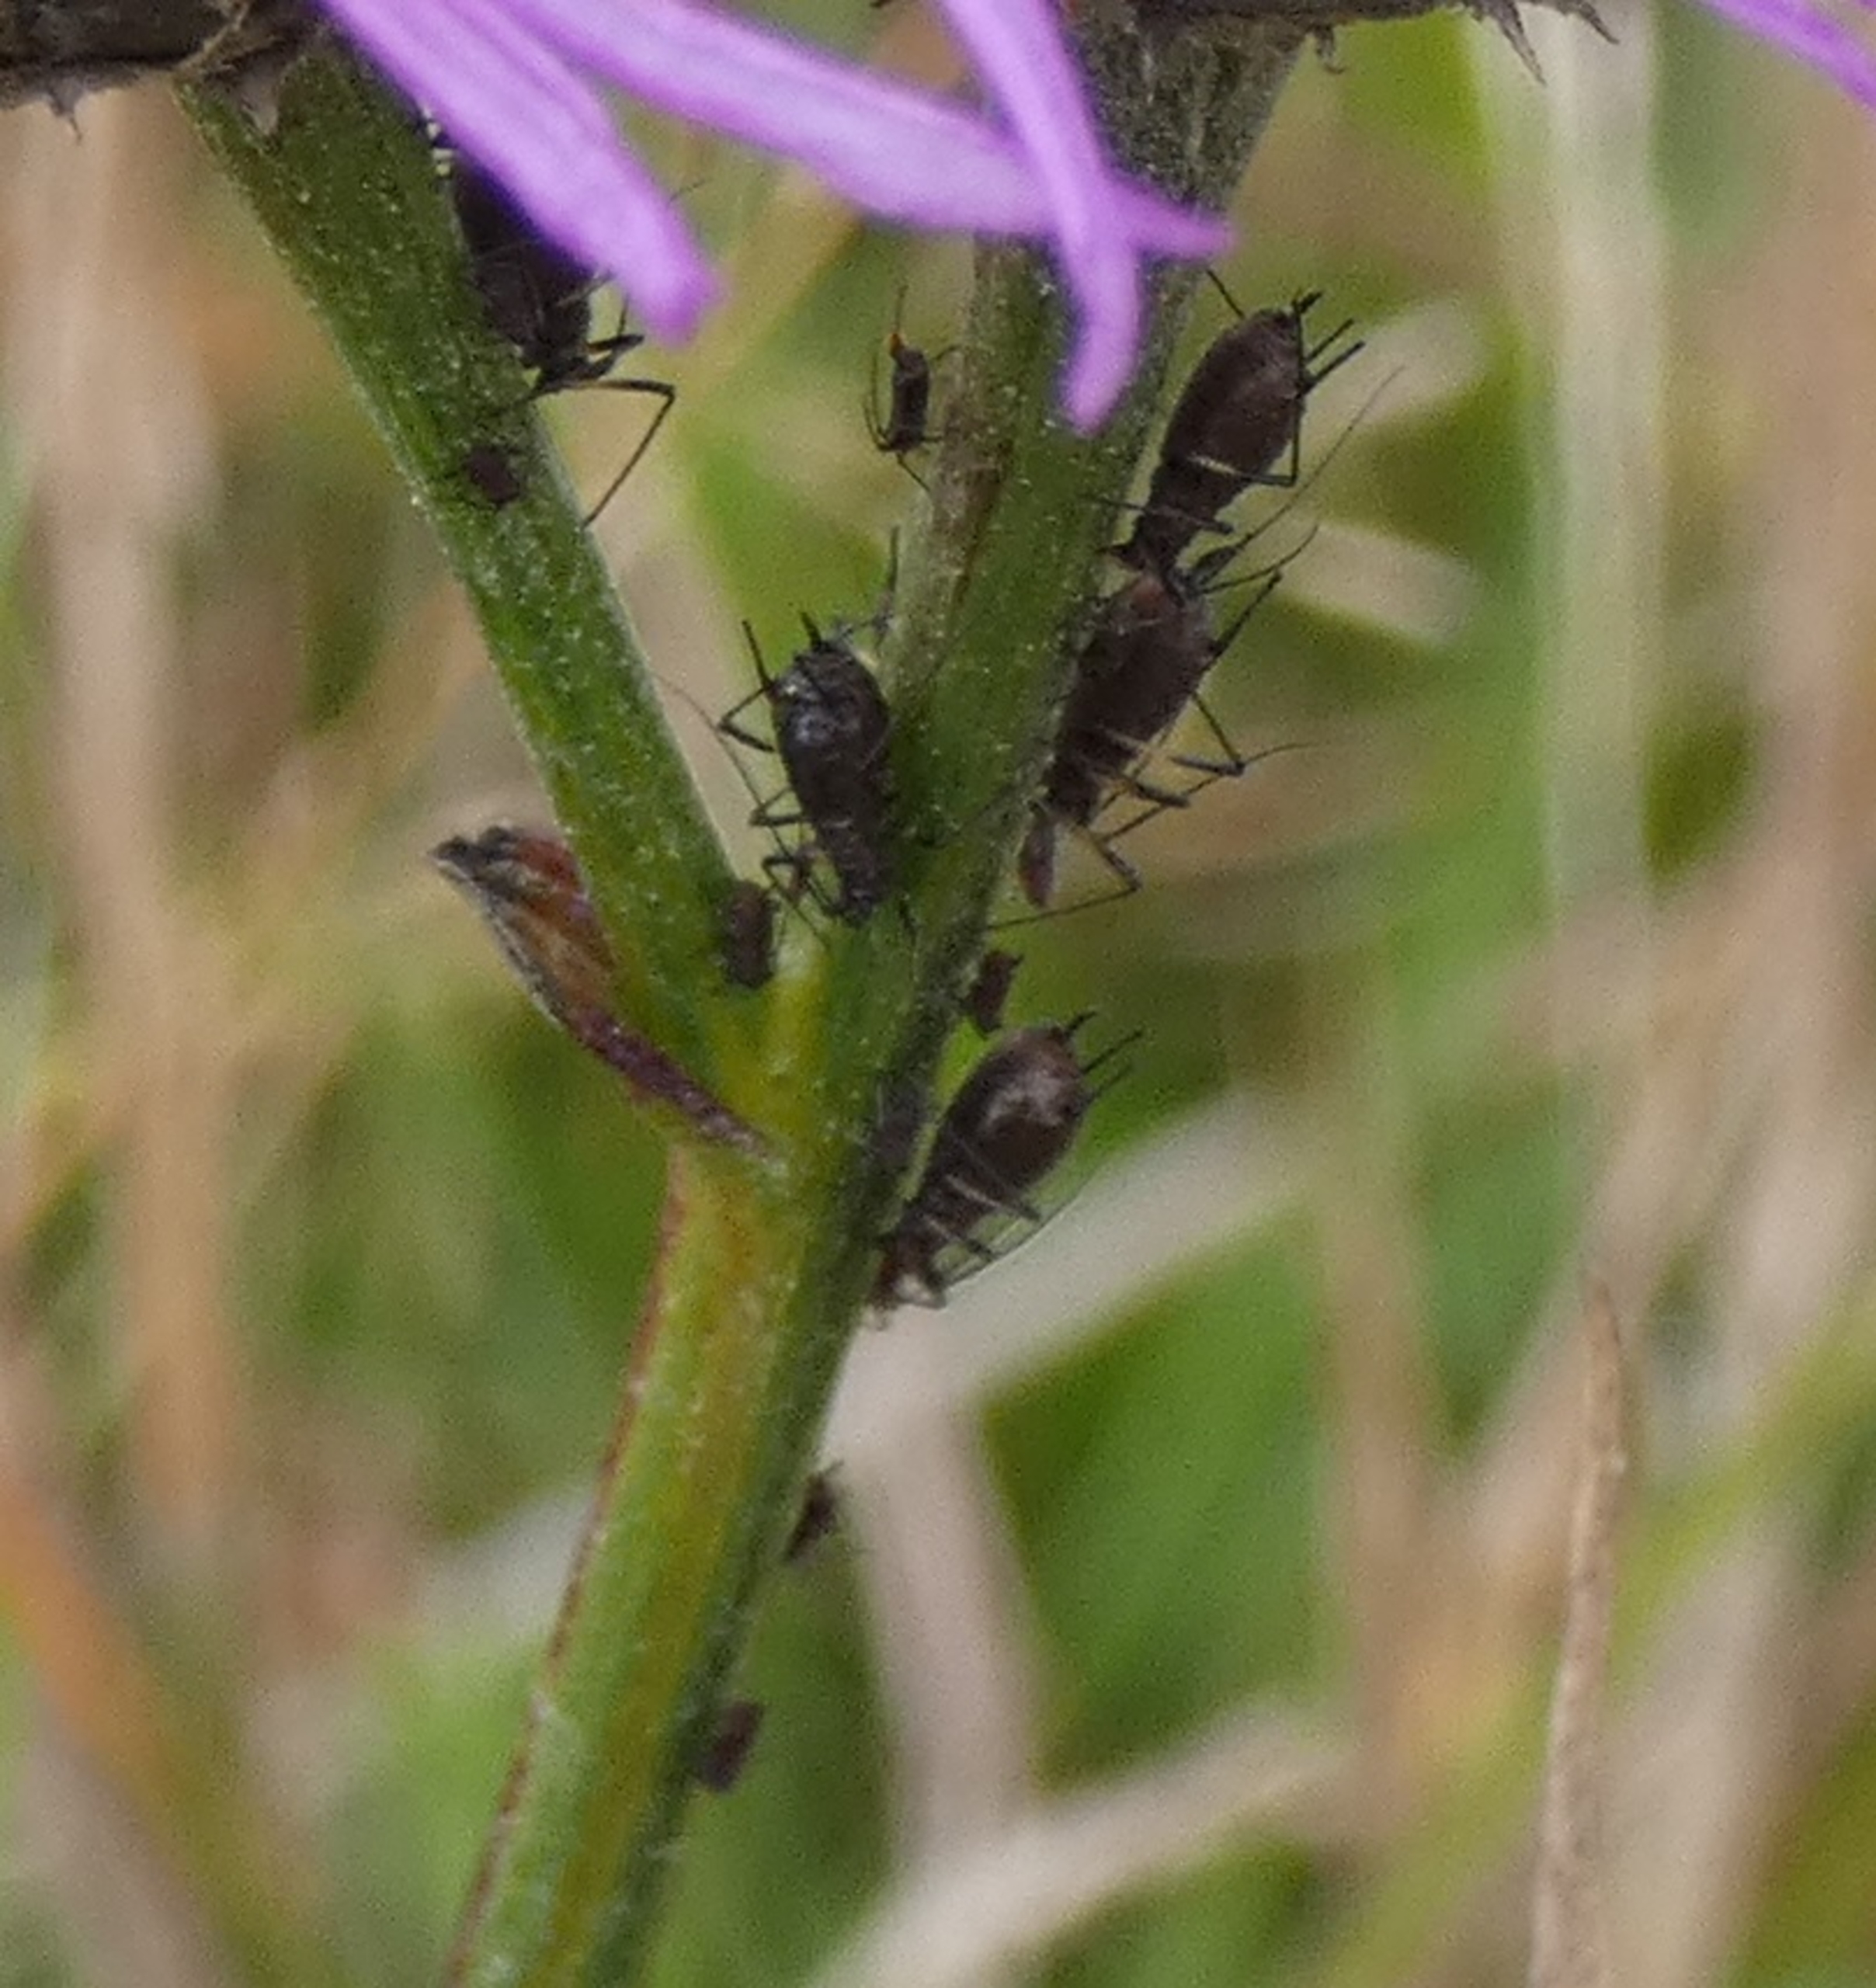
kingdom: Animalia
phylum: Arthropoda
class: Insecta
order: Hemiptera
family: Aphididae
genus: Uroleucon
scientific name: Uroleucon jaceae
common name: Brun knopurtbladlus
